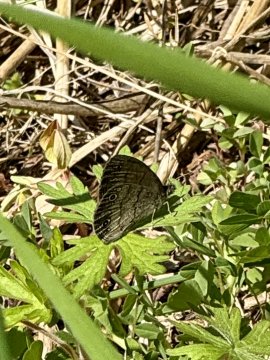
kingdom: Animalia
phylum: Arthropoda
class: Insecta
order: Lepidoptera
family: Nymphalidae
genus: Hermeuptychia
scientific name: Hermeuptychia hermes
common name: Carolina Satyr
